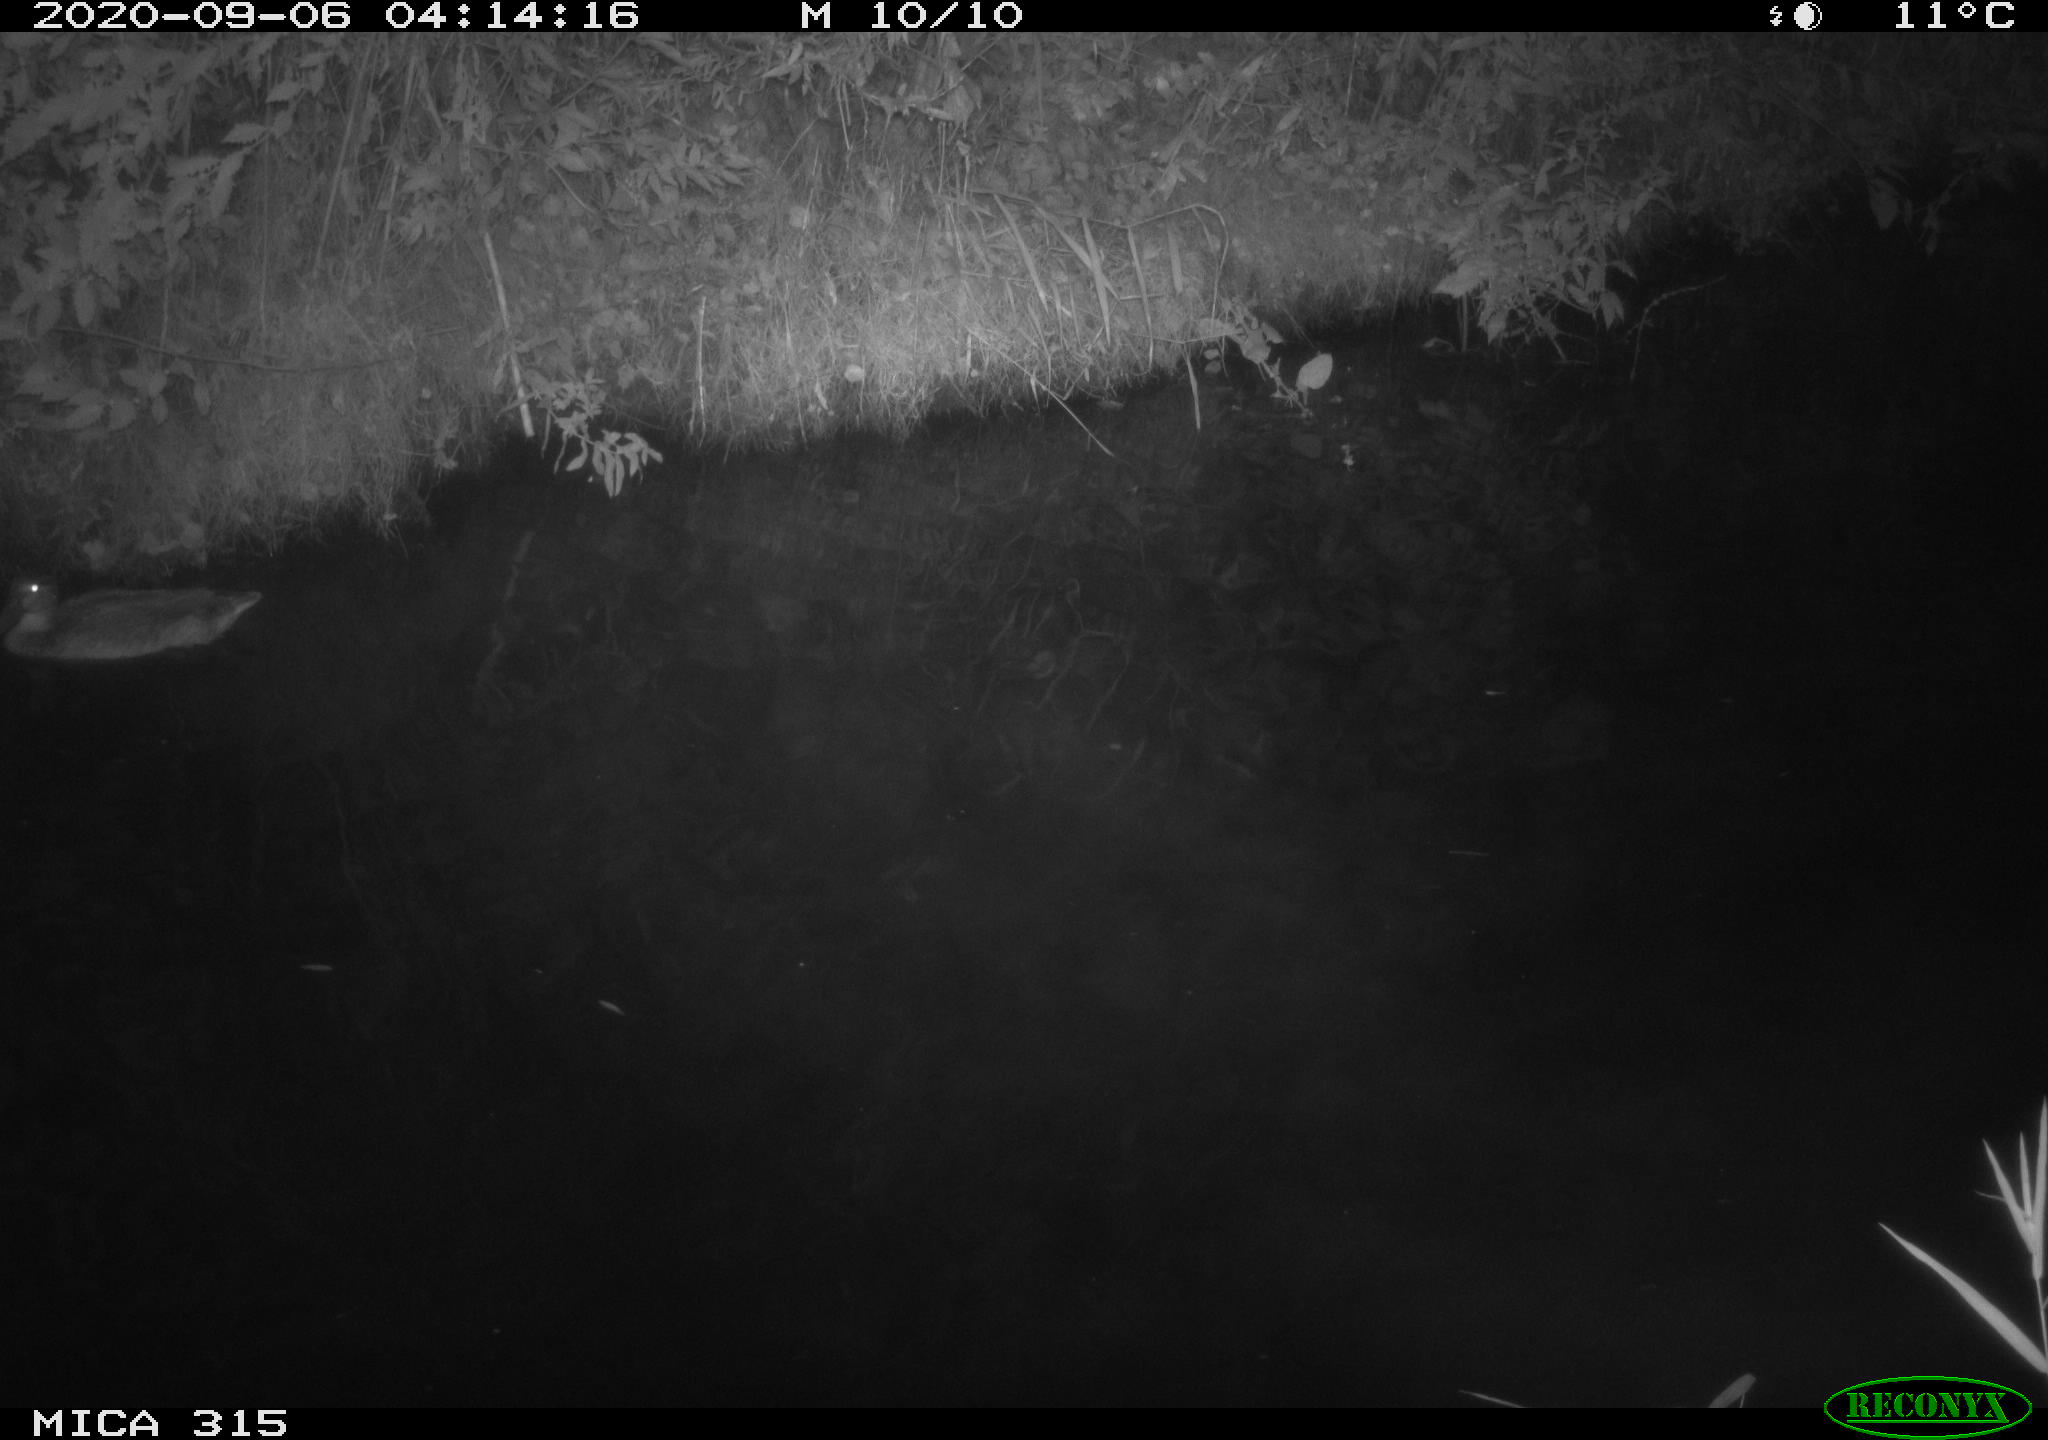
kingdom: Animalia
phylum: Chordata
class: Aves
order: Anseriformes
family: Anatidae
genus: Anas
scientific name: Anas platyrhynchos
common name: Mallard
